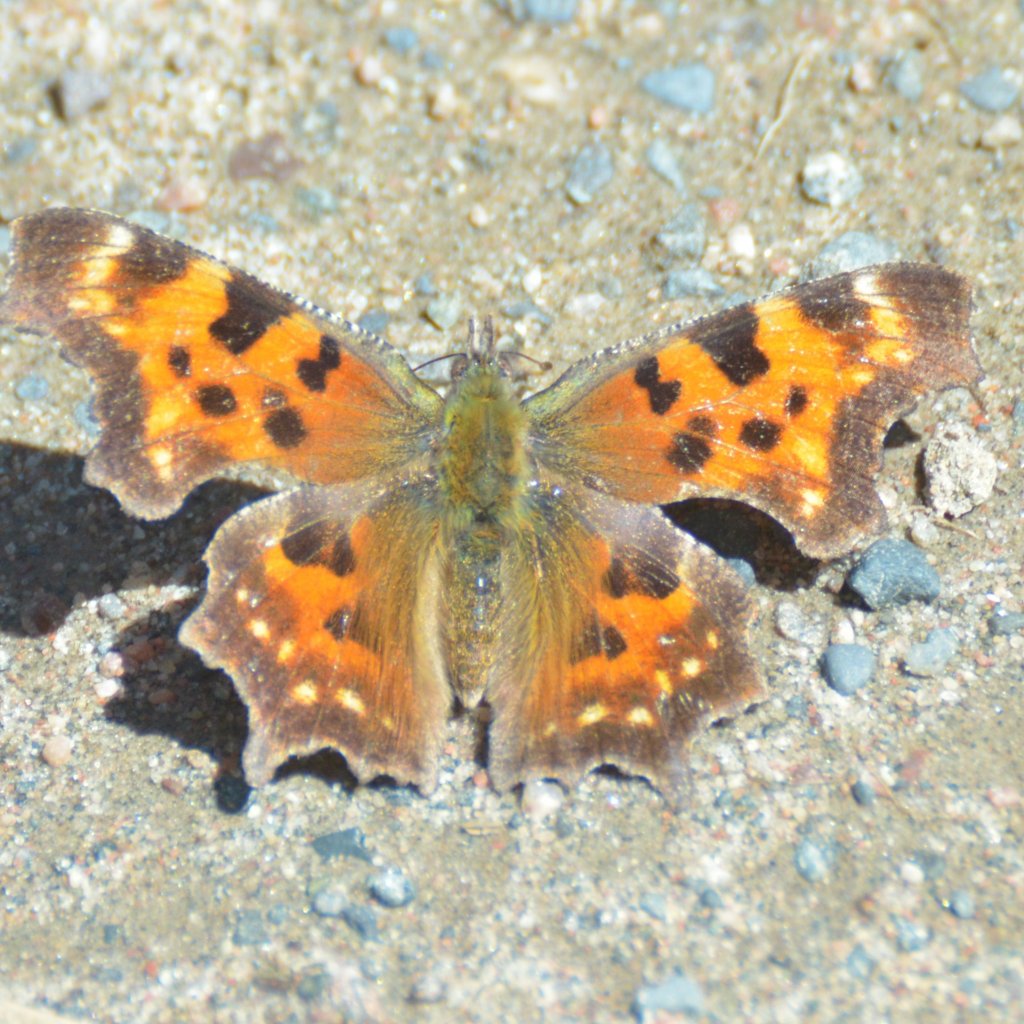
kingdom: Animalia
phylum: Arthropoda
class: Insecta
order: Lepidoptera
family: Nymphalidae
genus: Polygonia
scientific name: Polygonia faunus
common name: Green Comma
